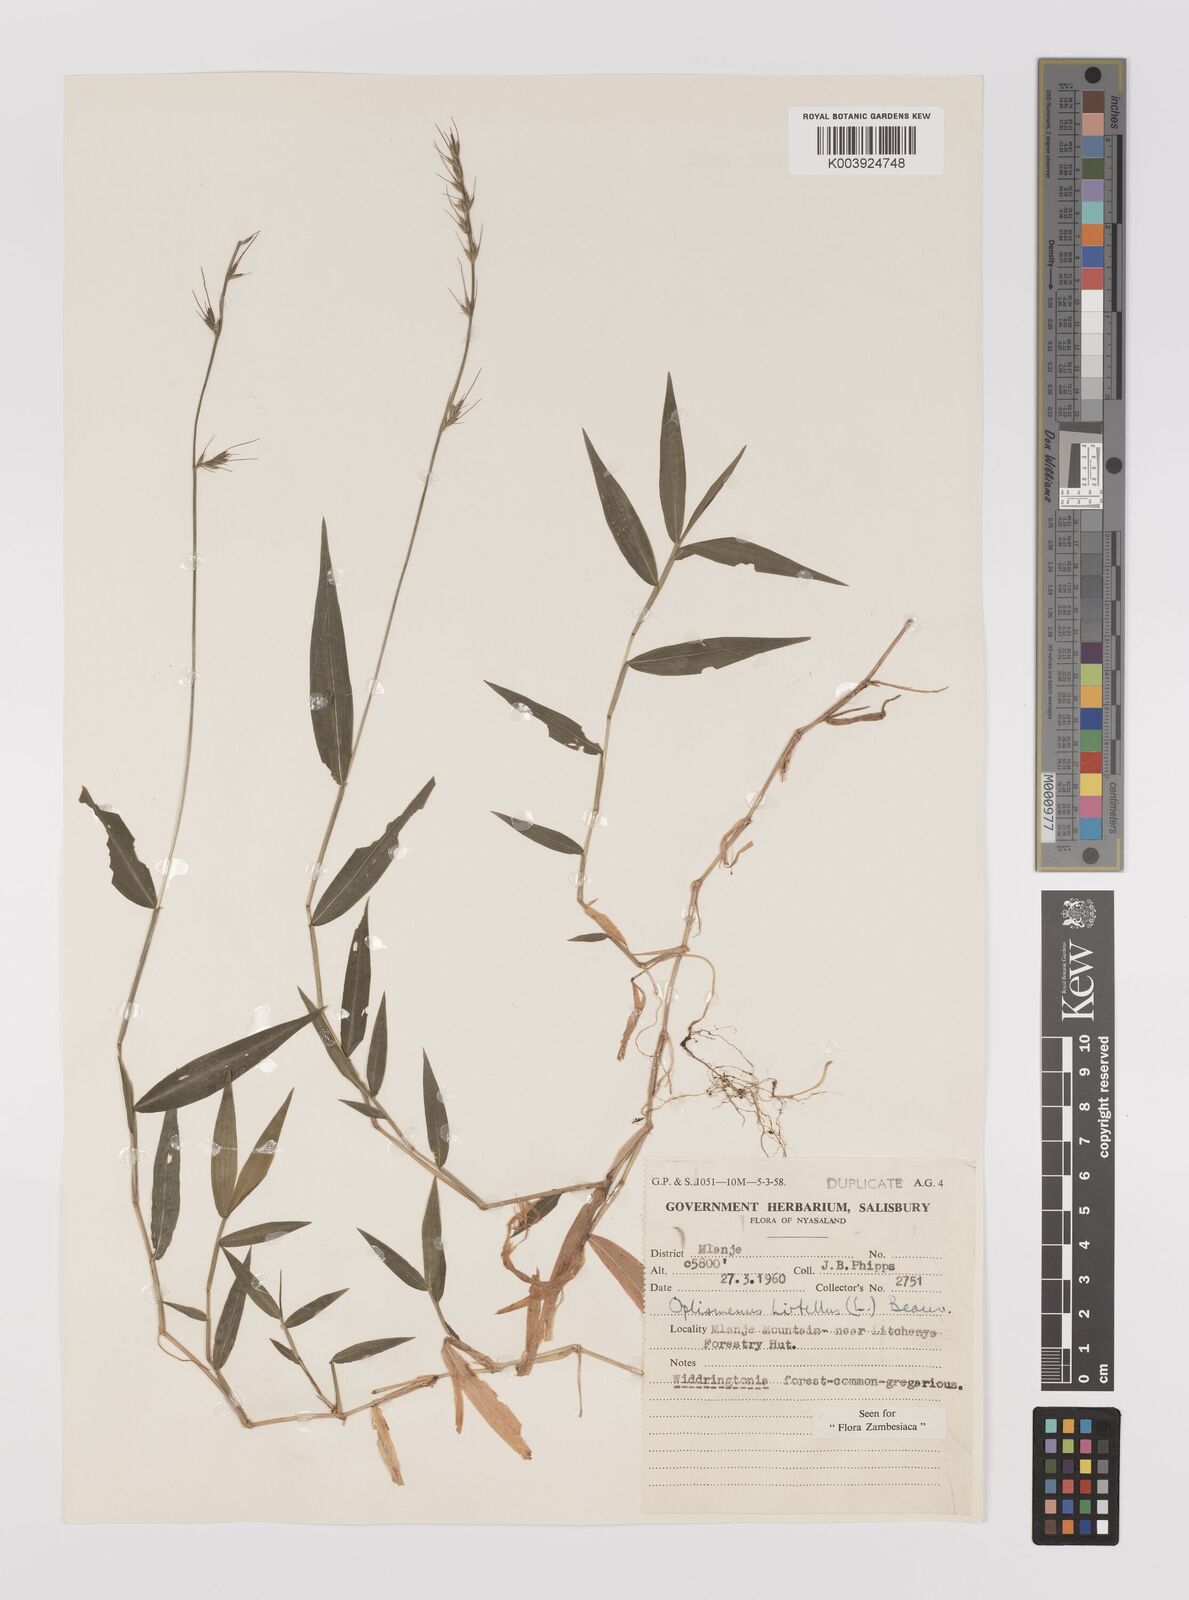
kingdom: Plantae
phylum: Tracheophyta
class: Liliopsida
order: Poales
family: Poaceae
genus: Oplismenus
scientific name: Oplismenus hirtellus
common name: Basketgrass
